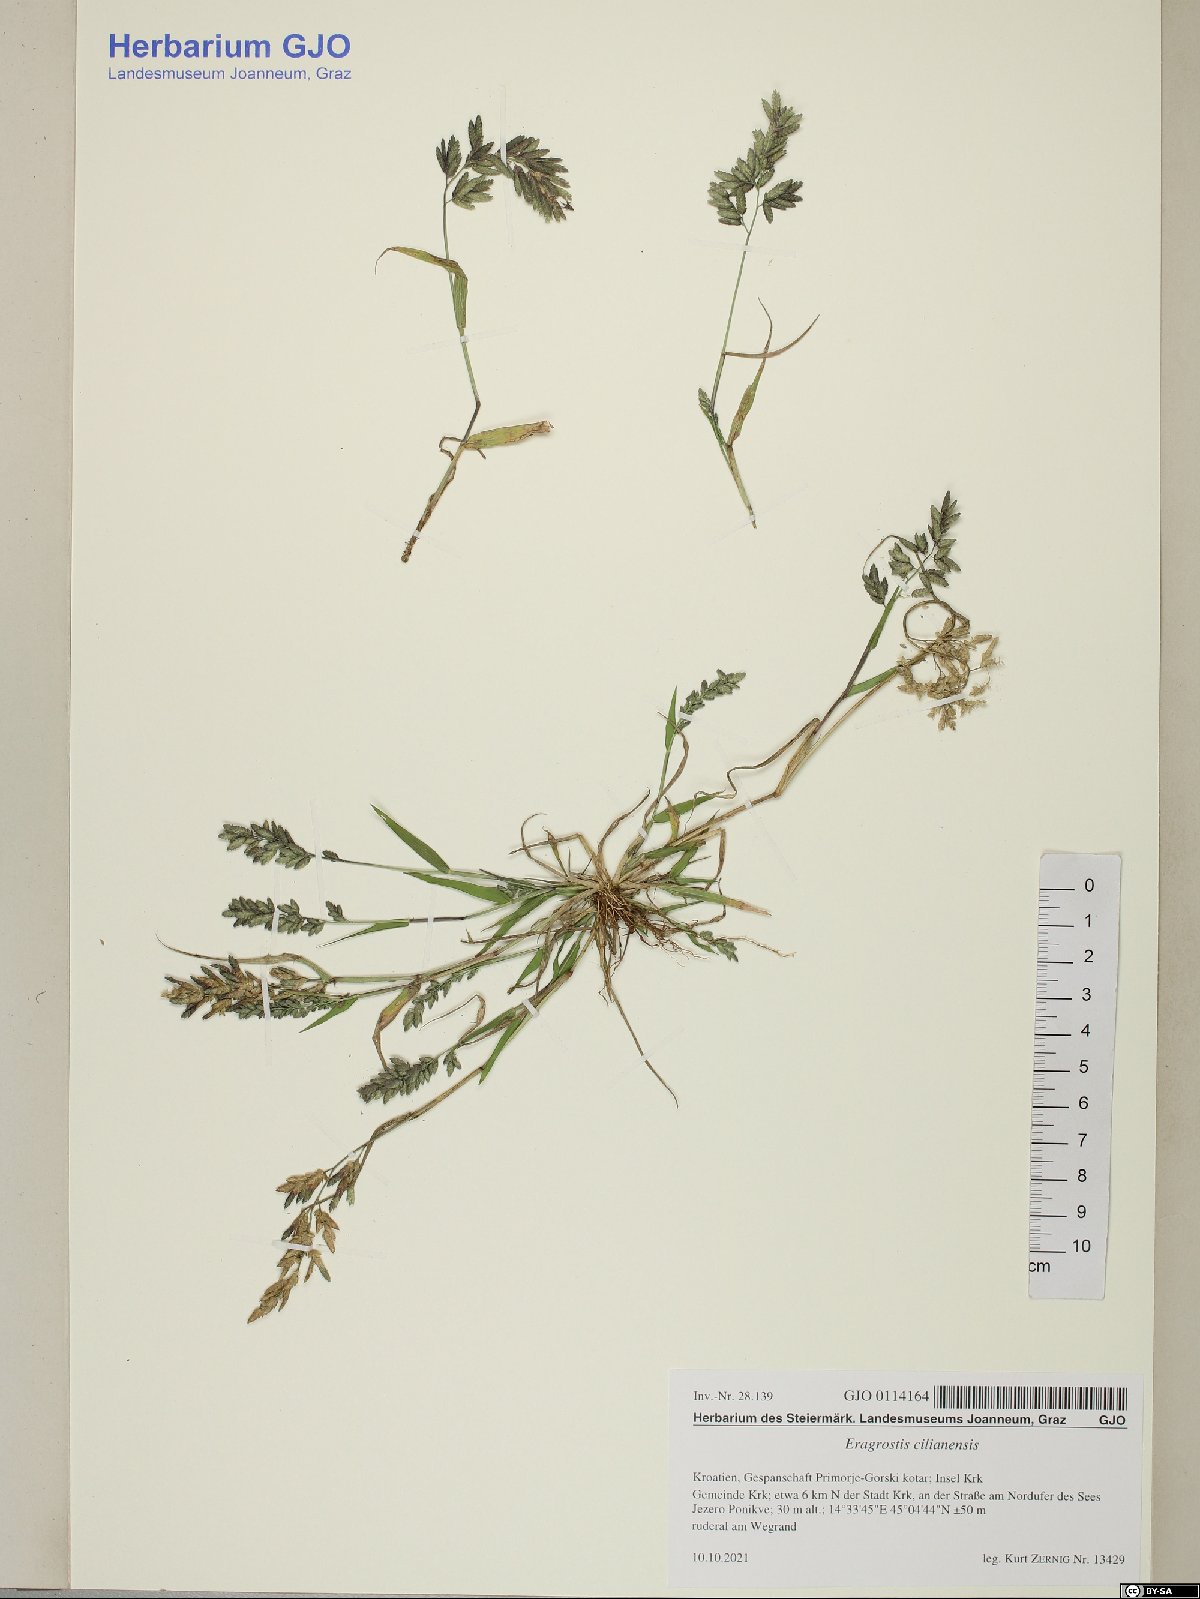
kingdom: Plantae
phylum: Tracheophyta
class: Liliopsida
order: Poales
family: Poaceae
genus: Eragrostis
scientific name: Eragrostis cilianensis
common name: Stinkgrass
